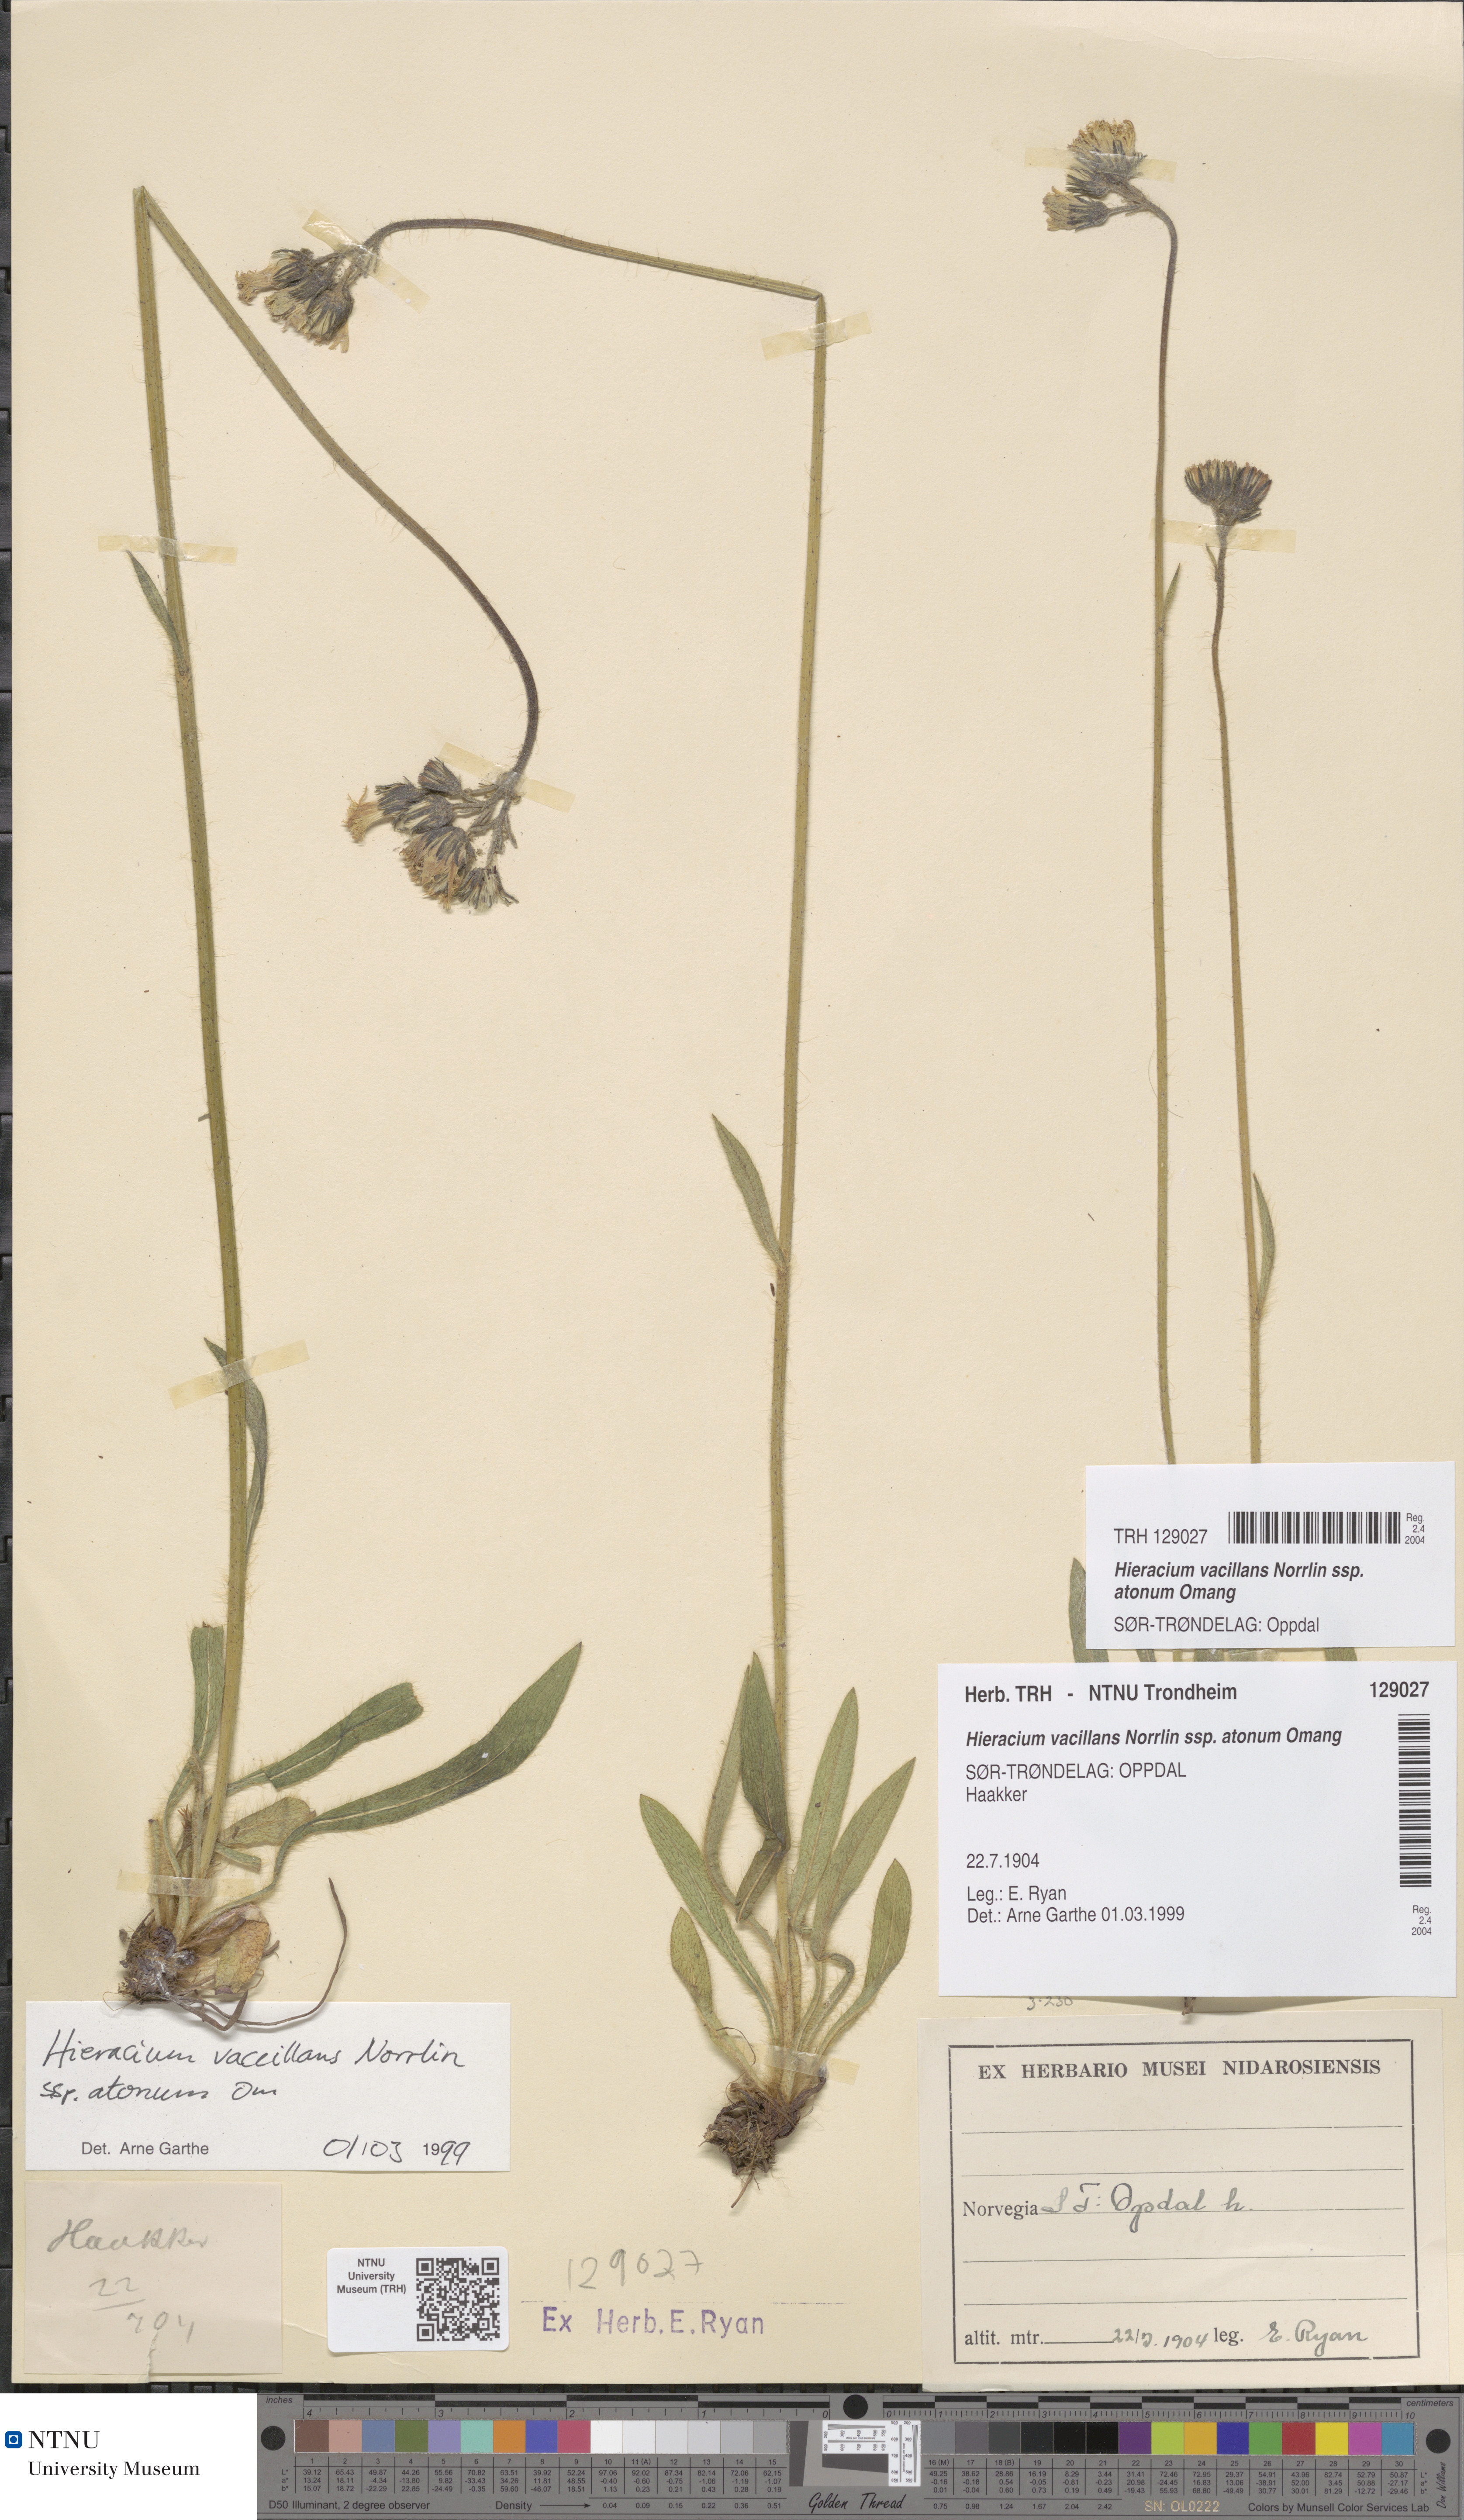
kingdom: Plantae
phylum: Tracheophyta
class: Magnoliopsida
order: Asterales
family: Asteraceae
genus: Pilosella
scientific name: Pilosella glomerata
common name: Queen devil hawkweed
